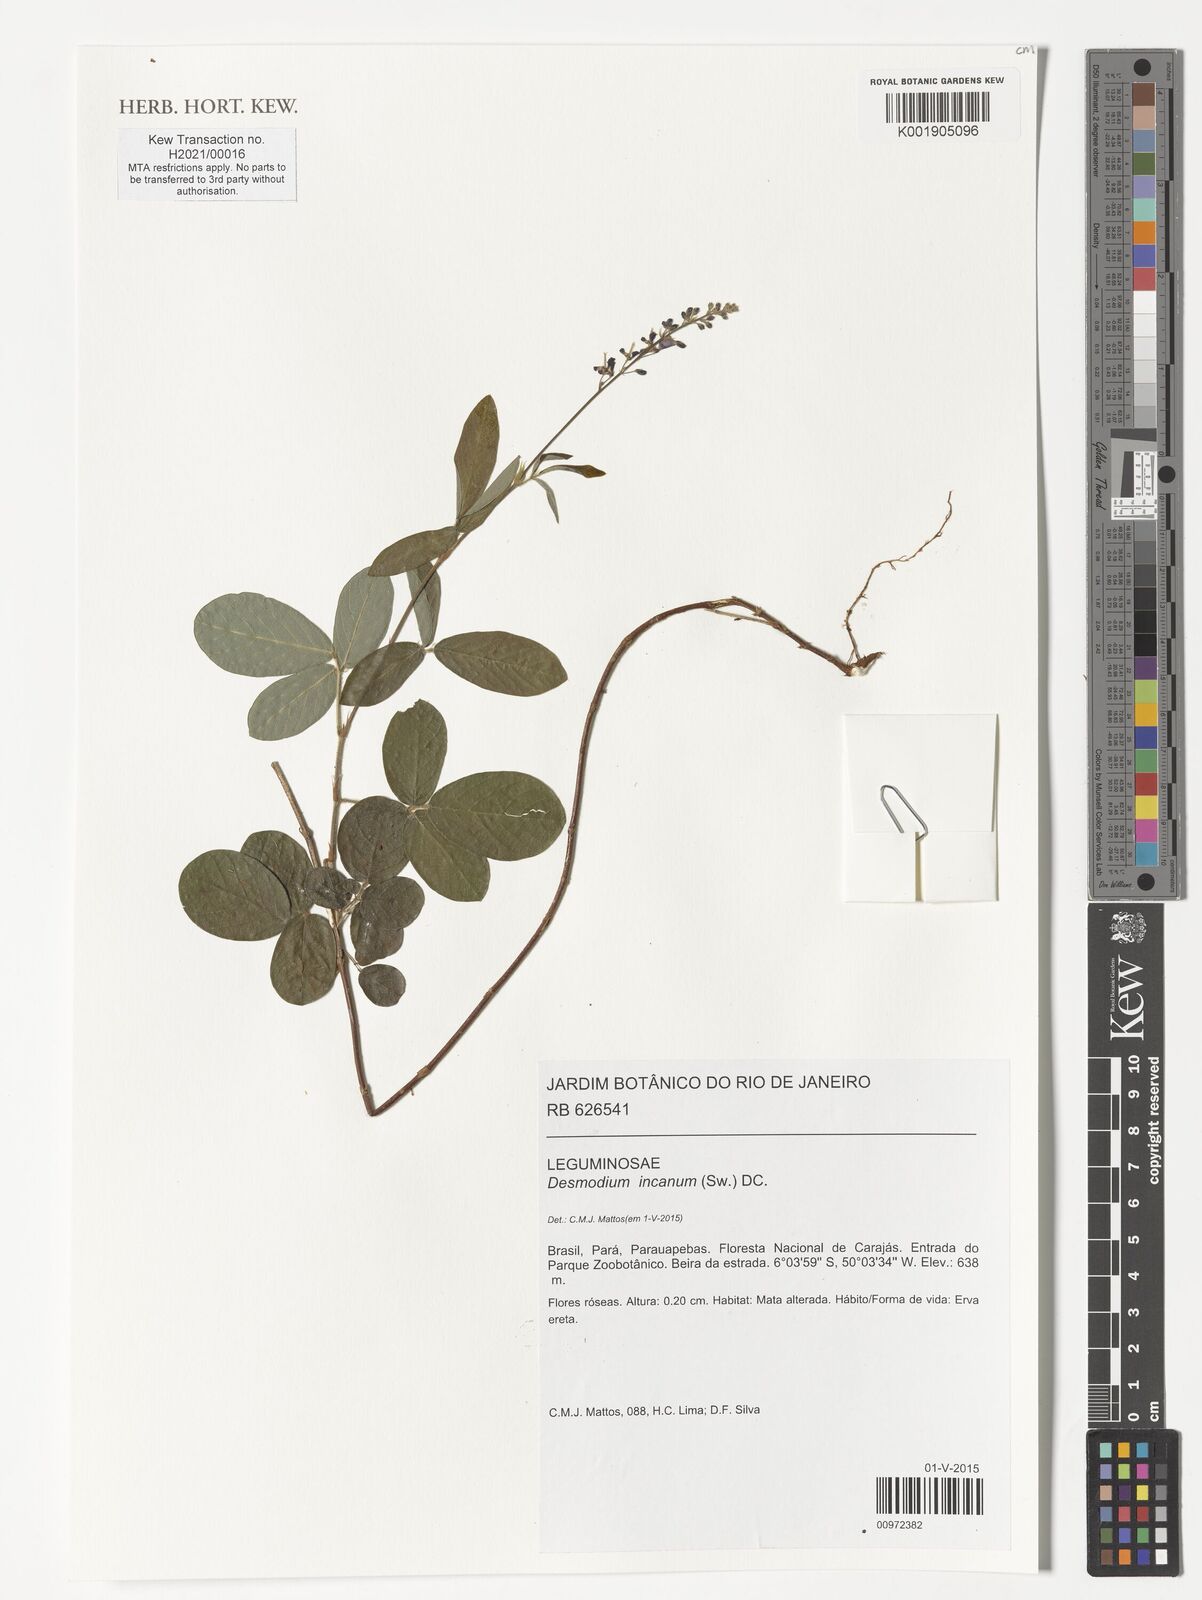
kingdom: Plantae
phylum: Tracheophyta
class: Magnoliopsida
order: Fabales
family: Fabaceae
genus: Desmodium
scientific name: Desmodium incanum
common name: Tickclover
